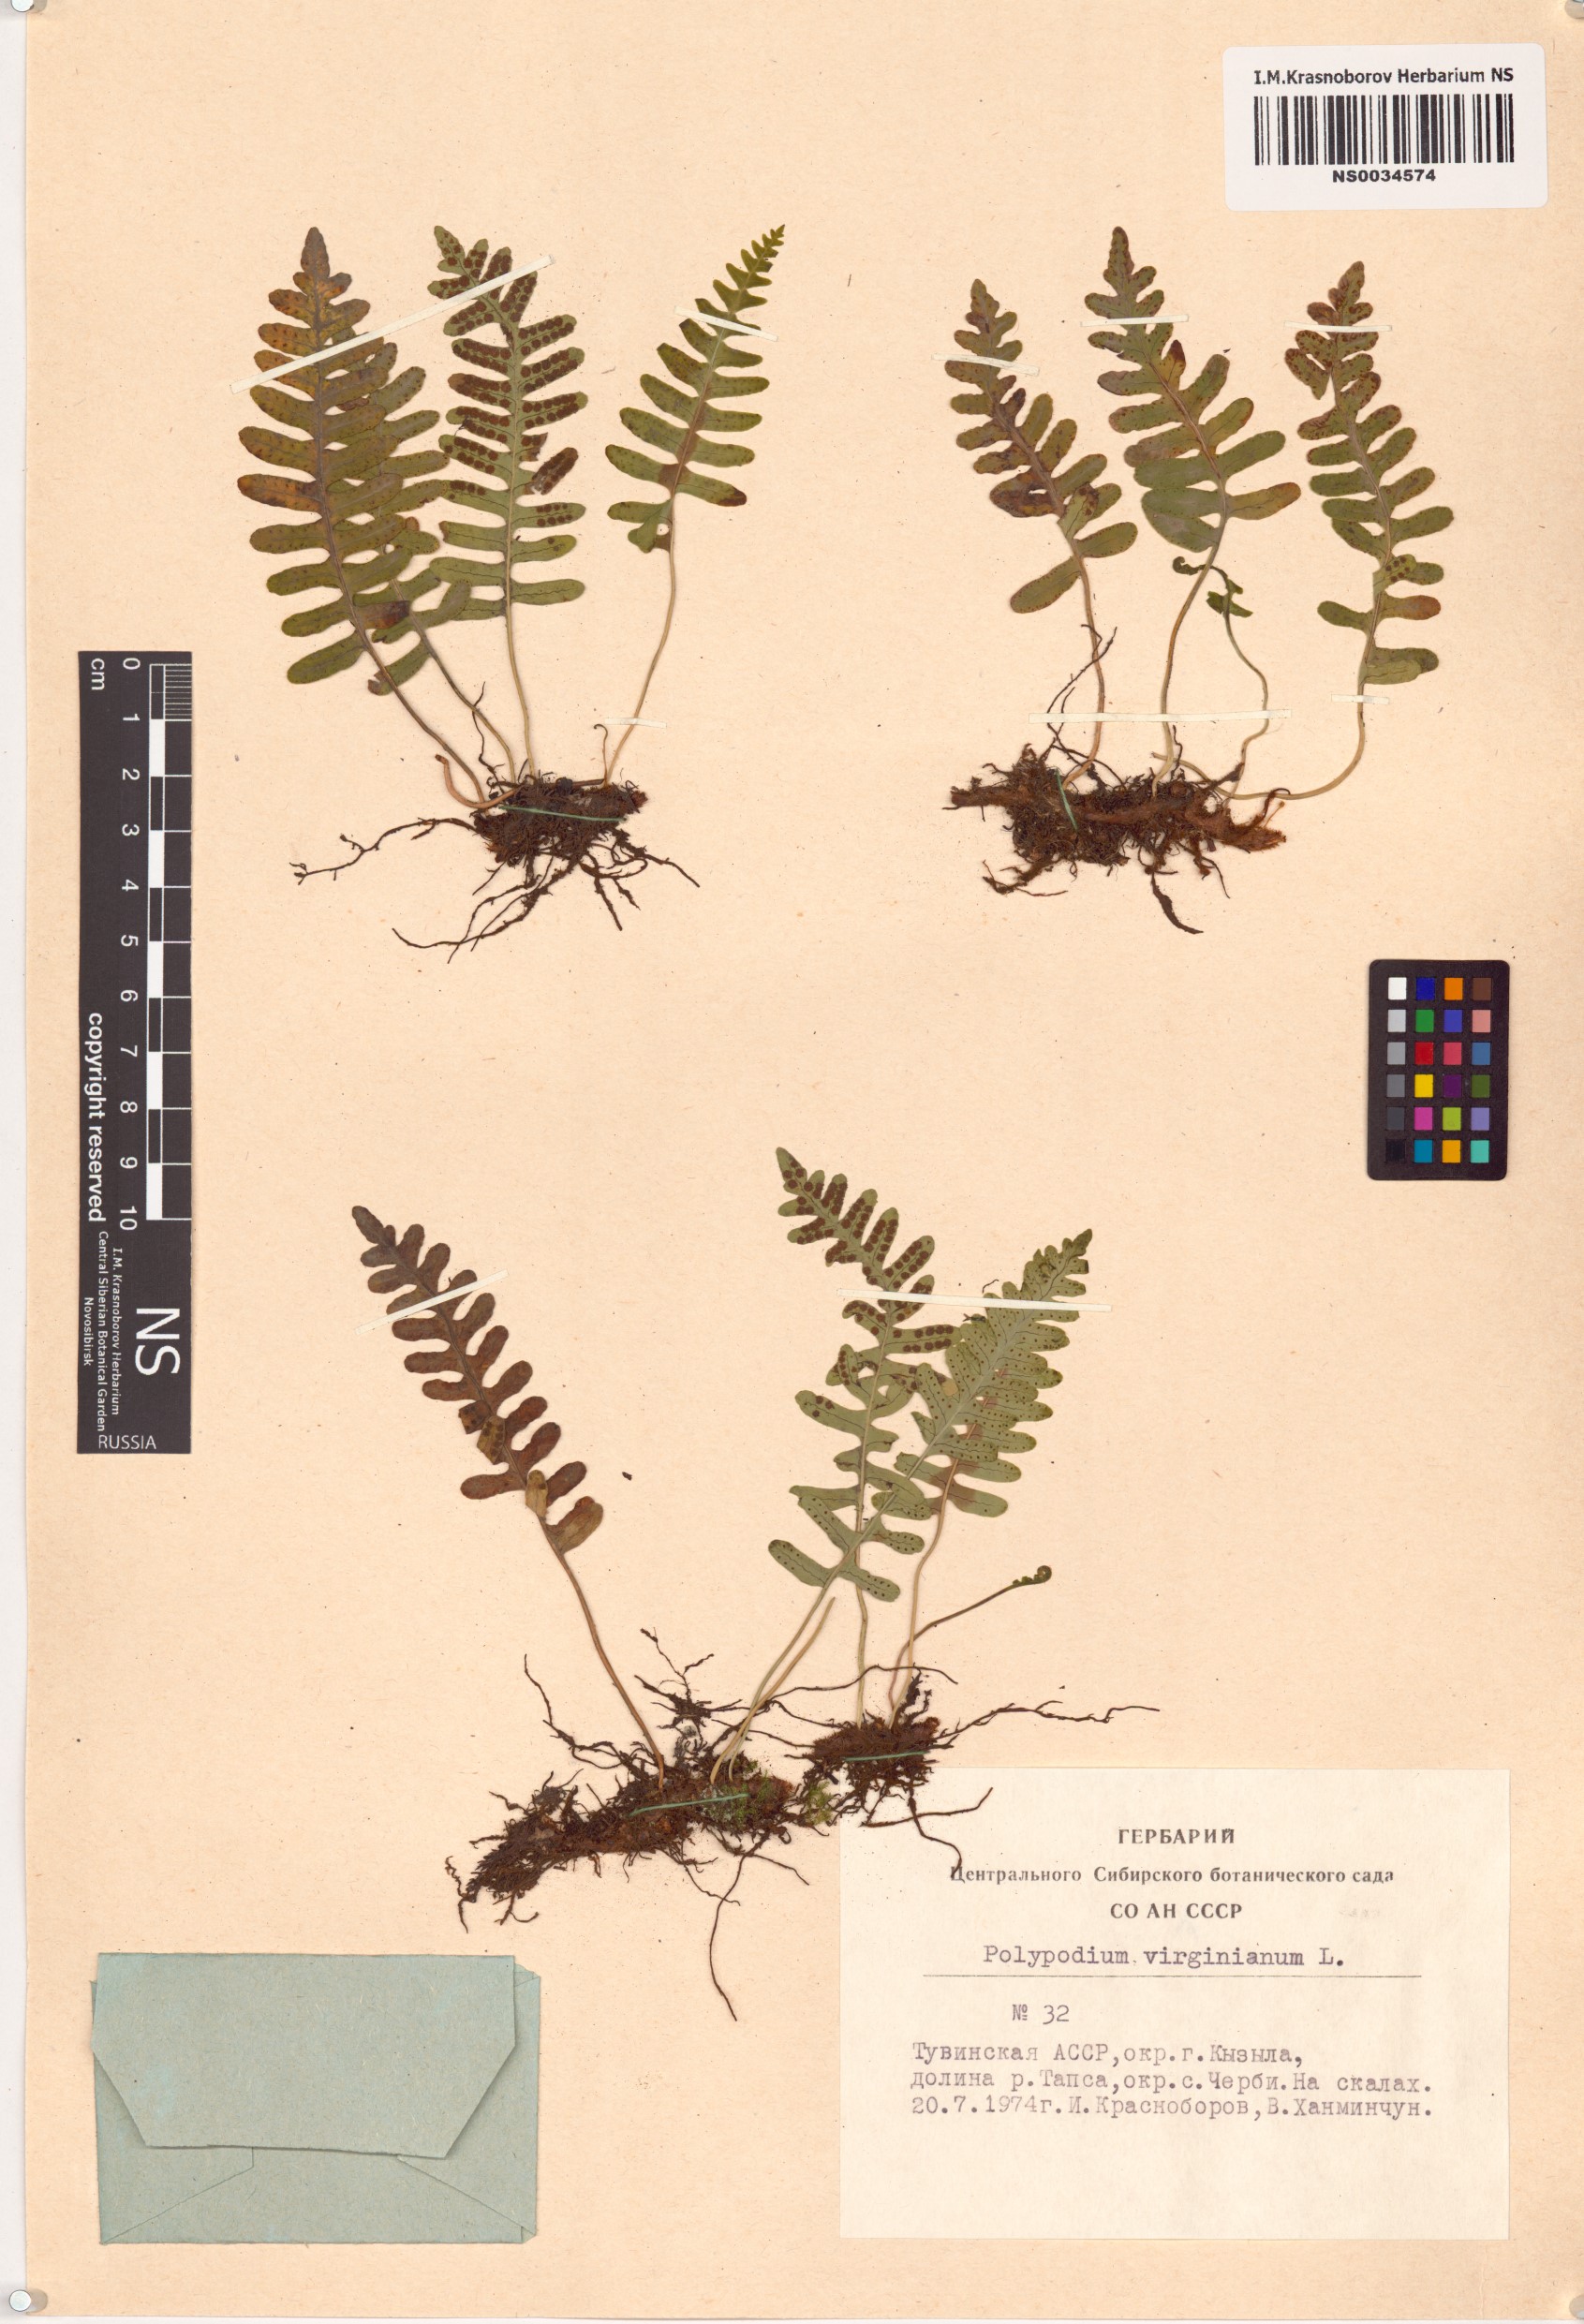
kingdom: Plantae
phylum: Tracheophyta
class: Polypodiopsida
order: Polypodiales
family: Polypodiaceae
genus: Polypodium
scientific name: Polypodium virginianum
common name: American wall fern
